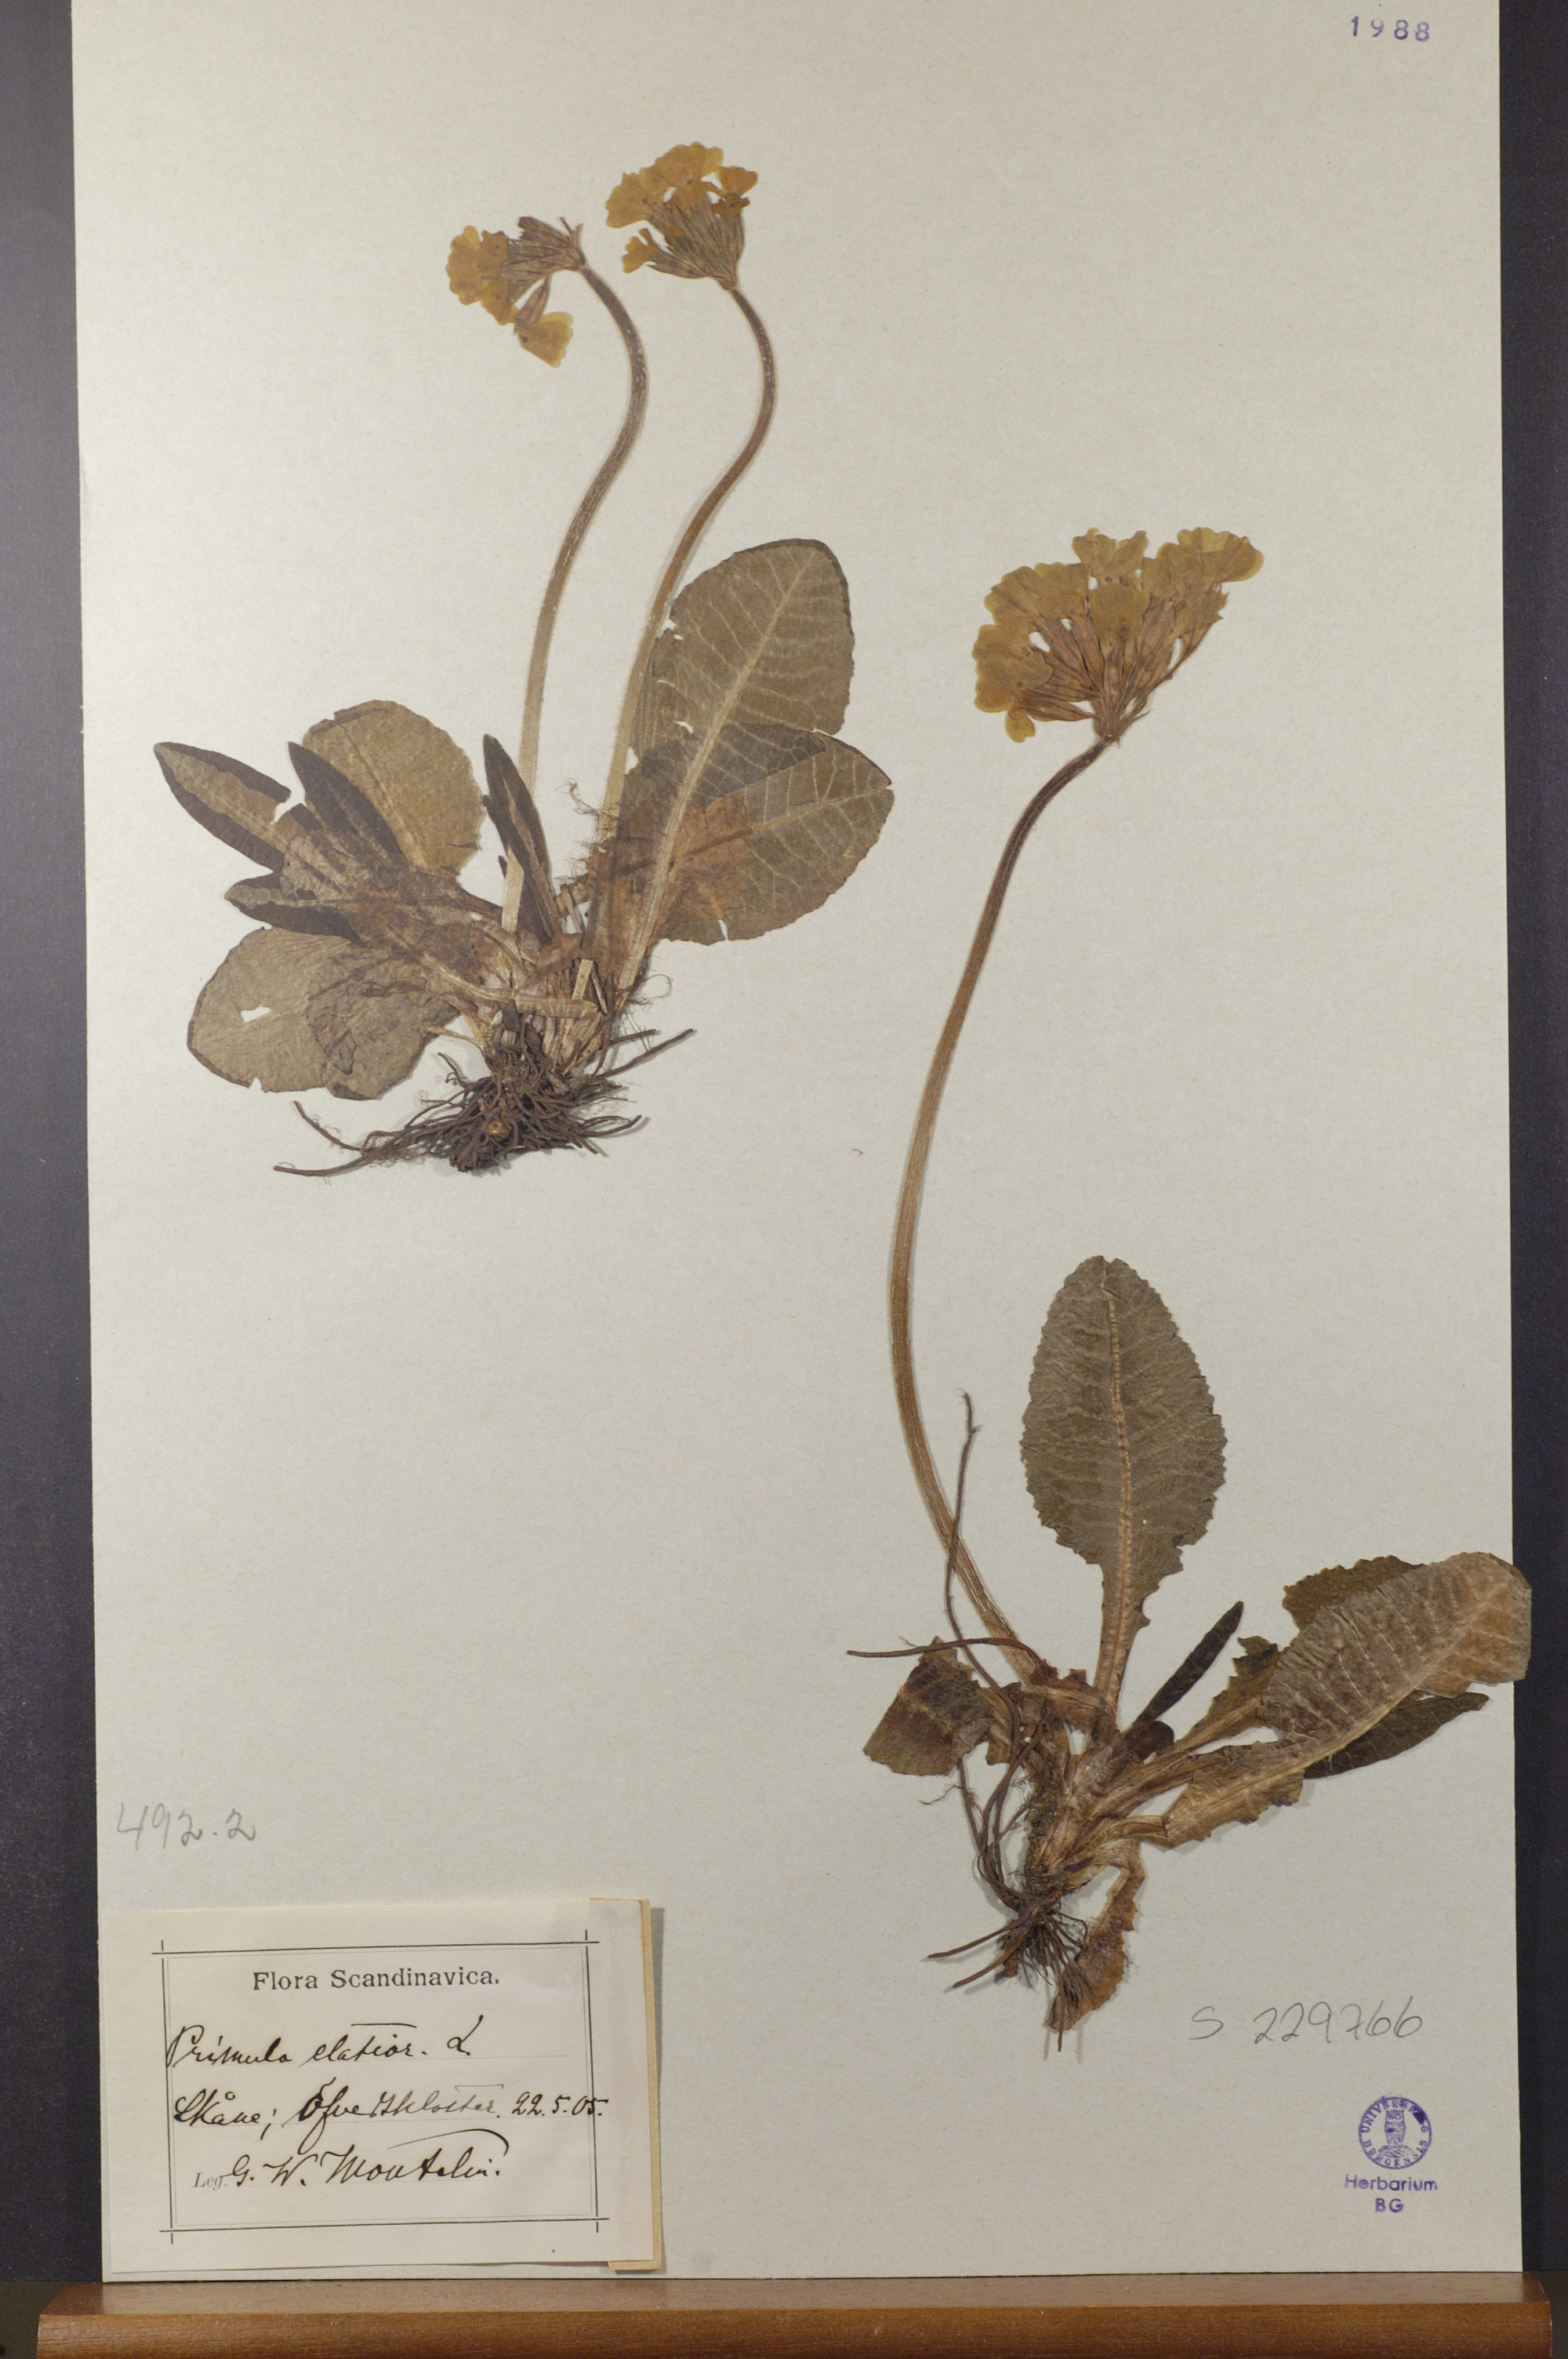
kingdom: Plantae
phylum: Tracheophyta
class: Magnoliopsida
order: Ericales
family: Primulaceae
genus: Primula
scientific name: Primula elatior
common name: Oxlip
